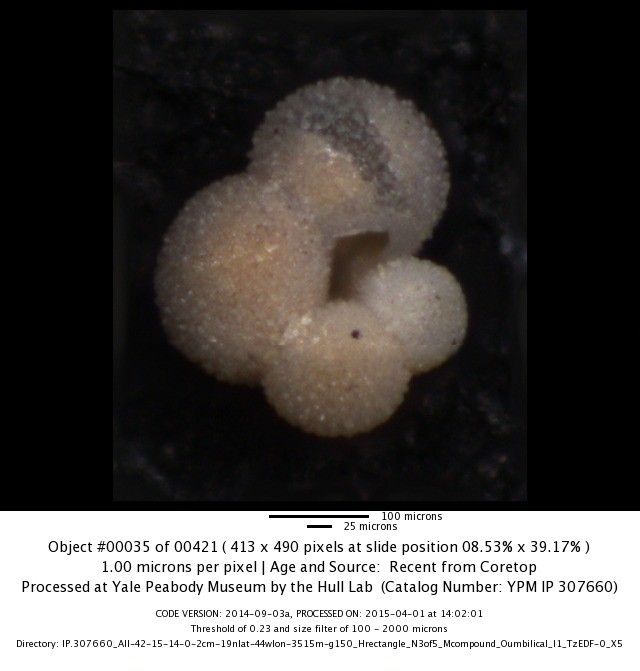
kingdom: Chromista
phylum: Foraminifera
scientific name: Foraminifera
